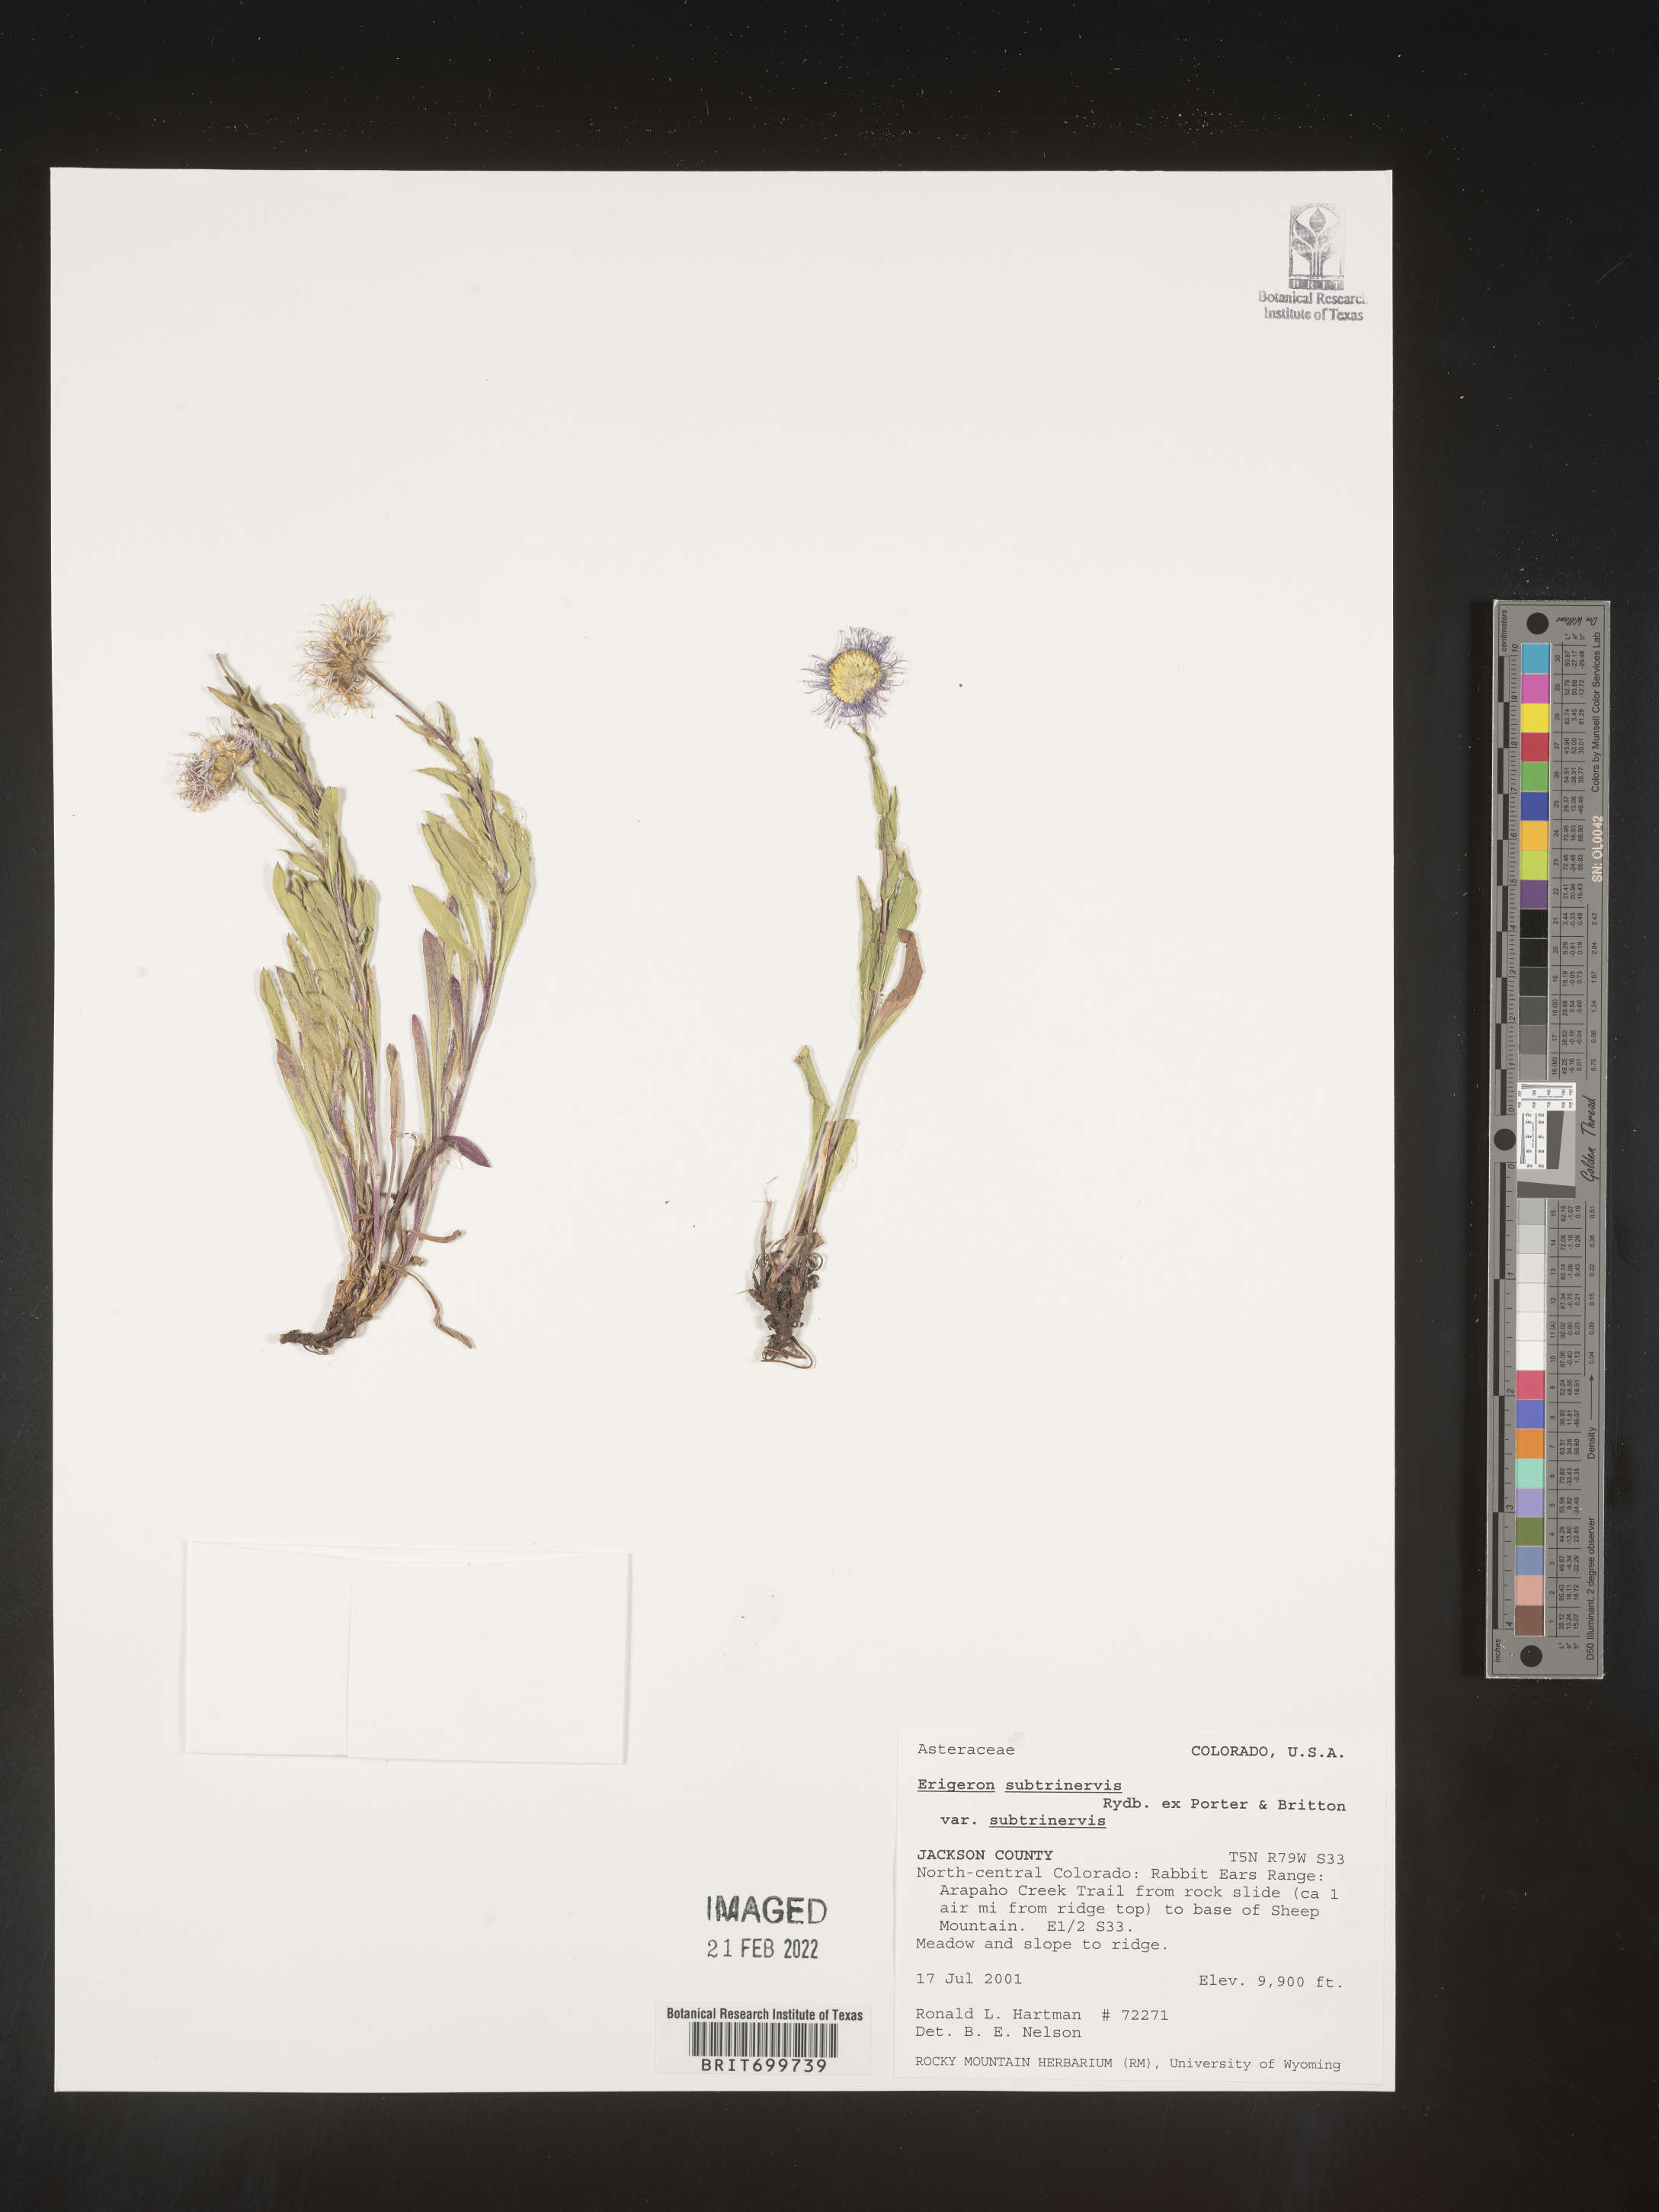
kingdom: Plantae
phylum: Tracheophyta
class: Magnoliopsida
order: Asterales
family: Asteraceae
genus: Erigeron
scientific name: Erigeron subtrinervis
